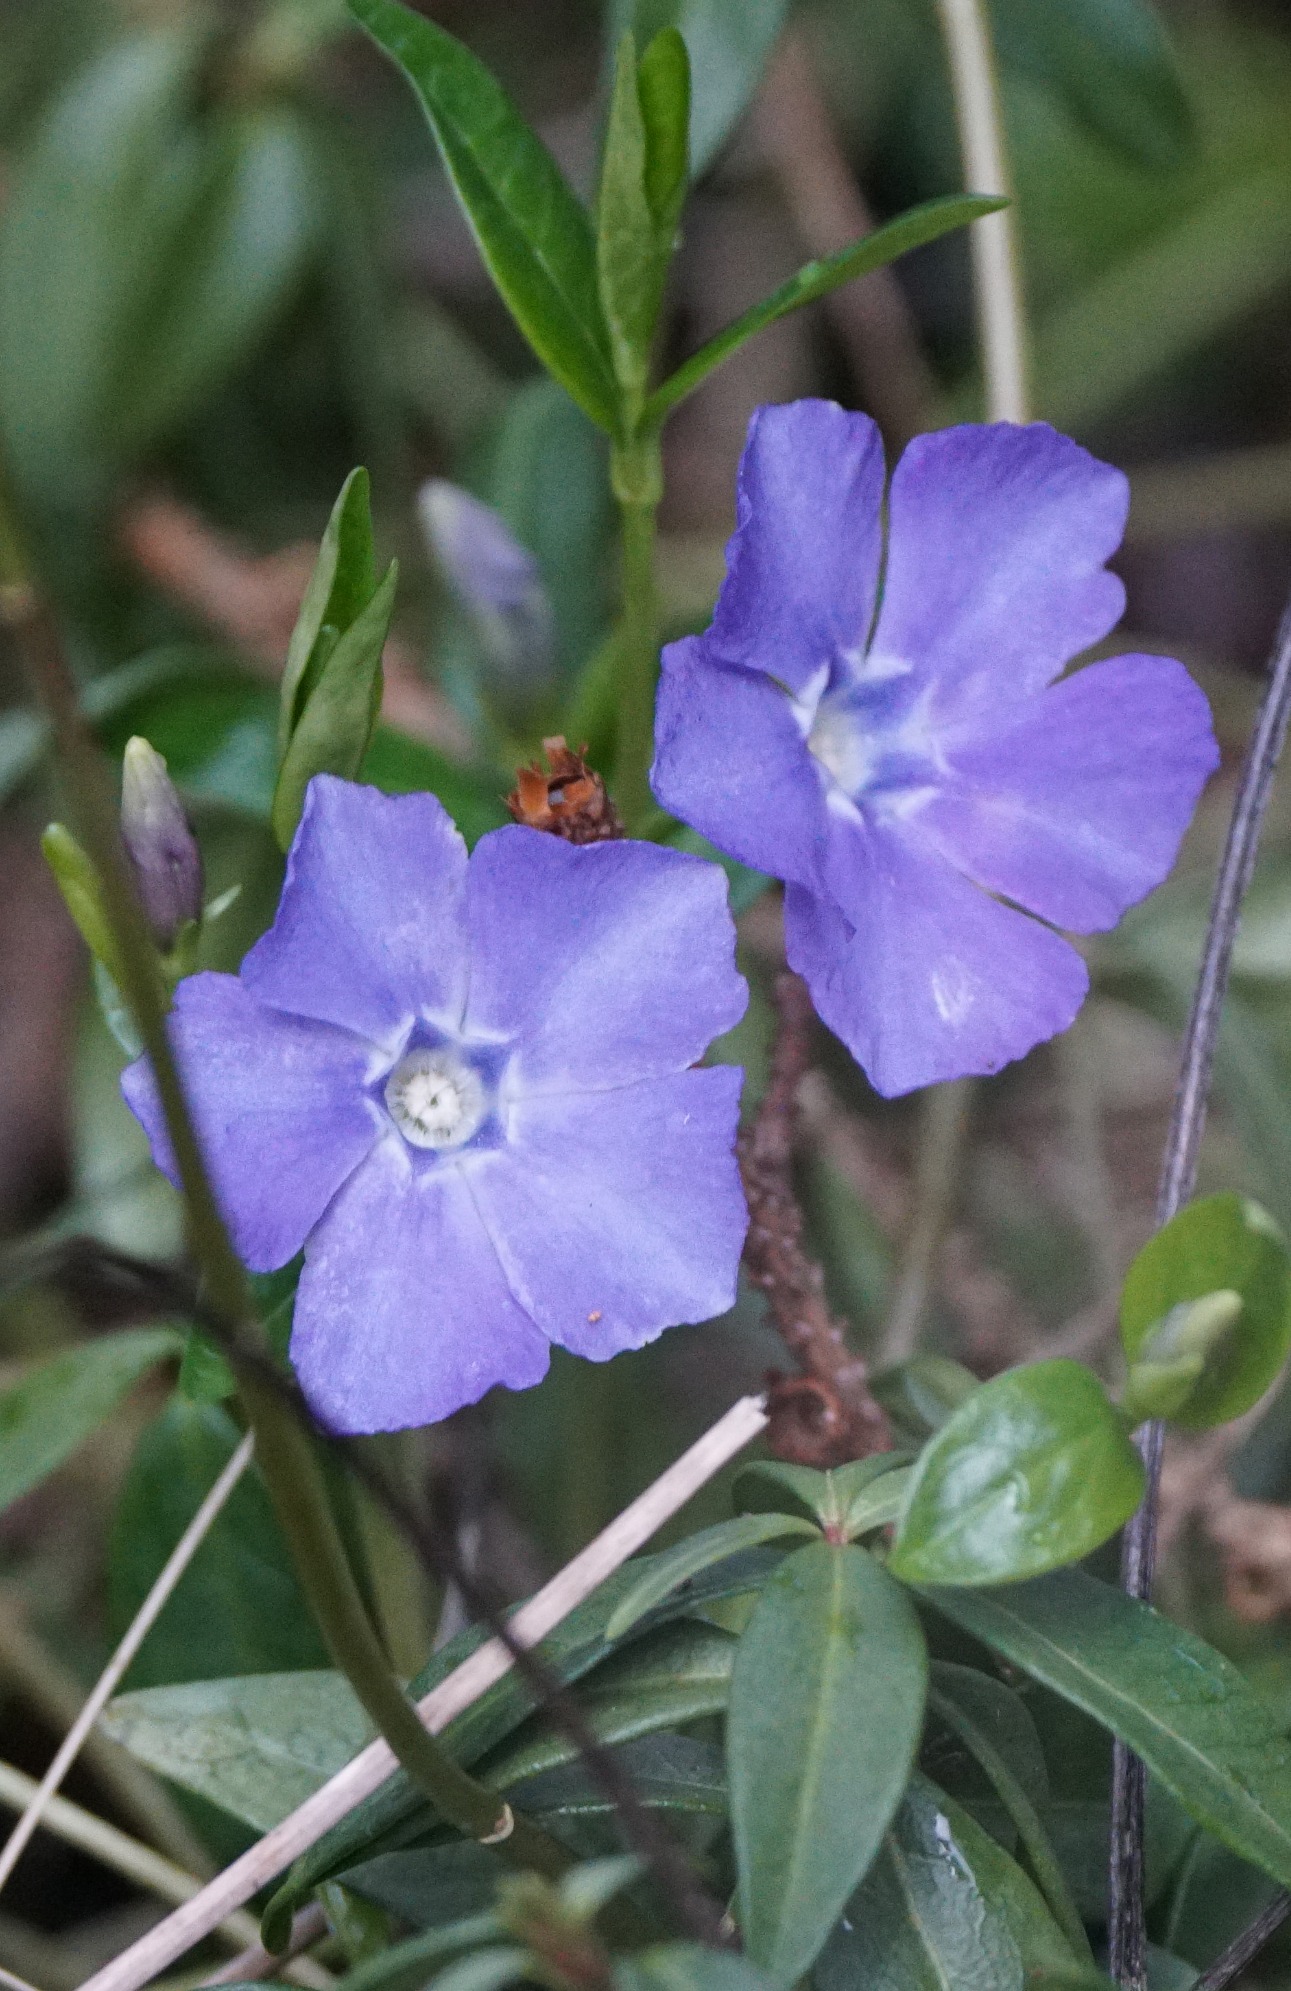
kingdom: Plantae
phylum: Tracheophyta
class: Magnoliopsida
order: Gentianales
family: Apocynaceae
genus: Vinca
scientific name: Vinca minor
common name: Liden singrøn
